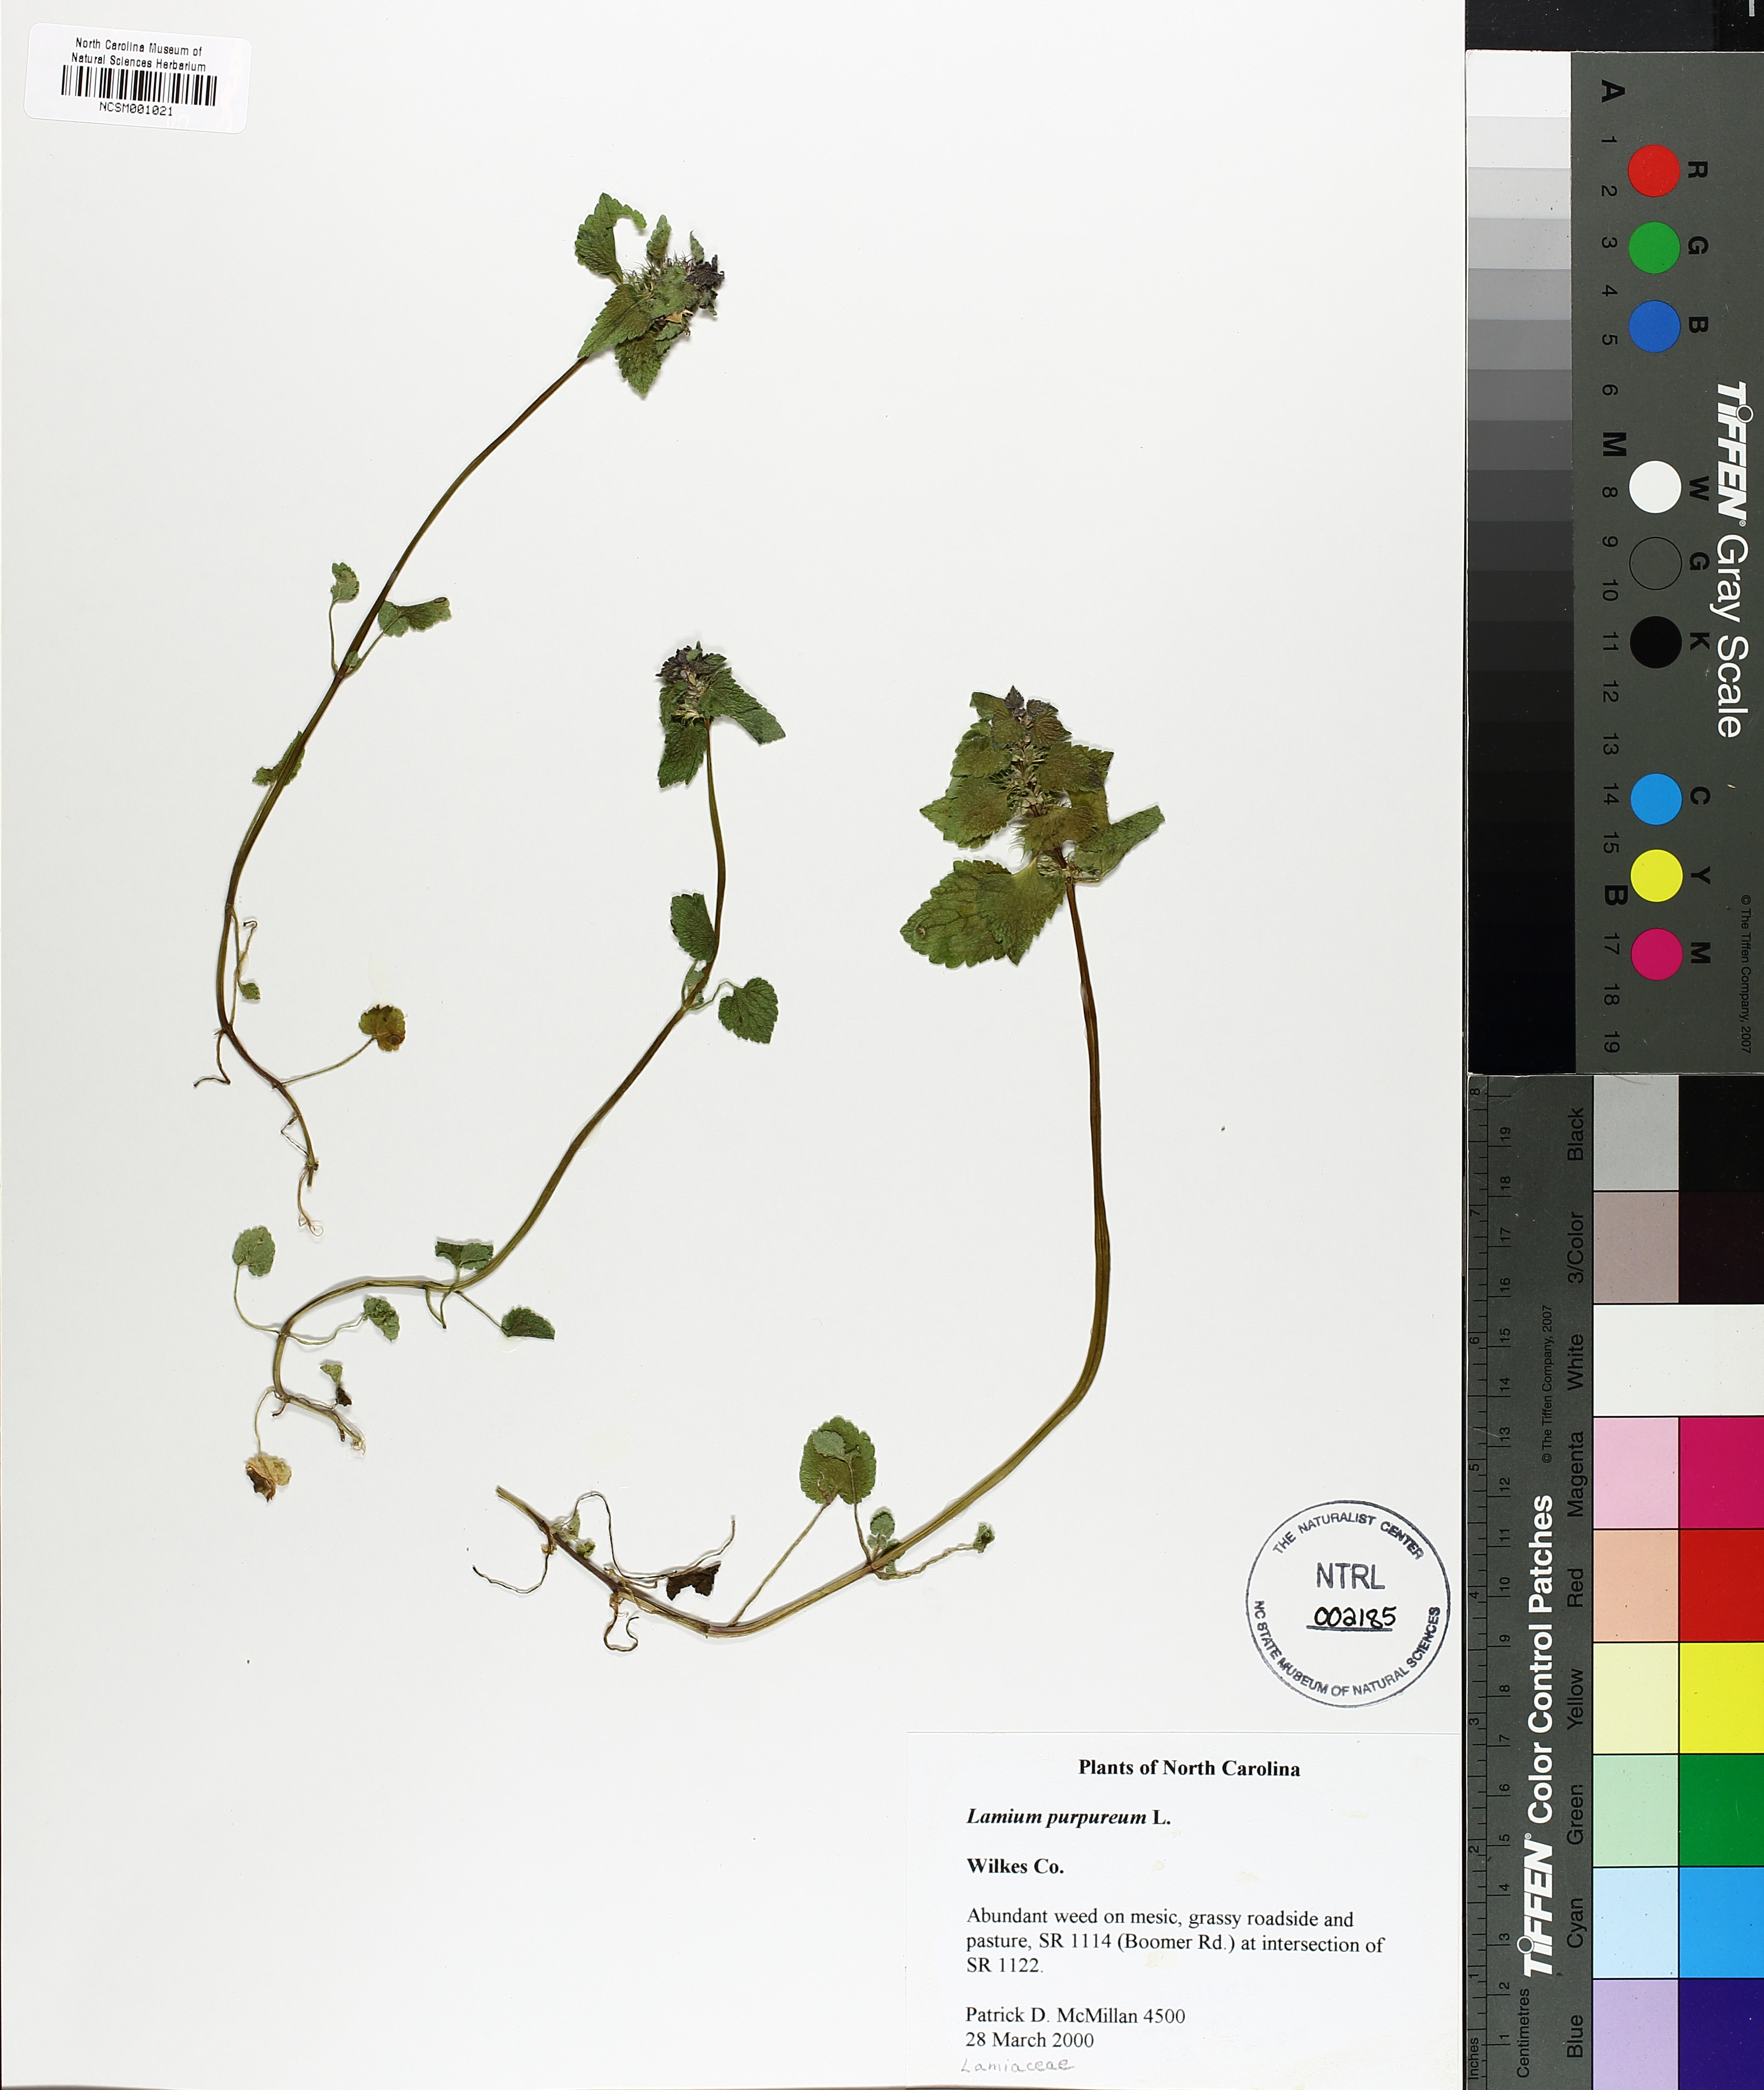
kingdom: Plantae
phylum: Tracheophyta
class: Magnoliopsida
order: Lamiales
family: Lamiaceae
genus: Lamium
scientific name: Lamium purpureum
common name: Red dead-nettle
